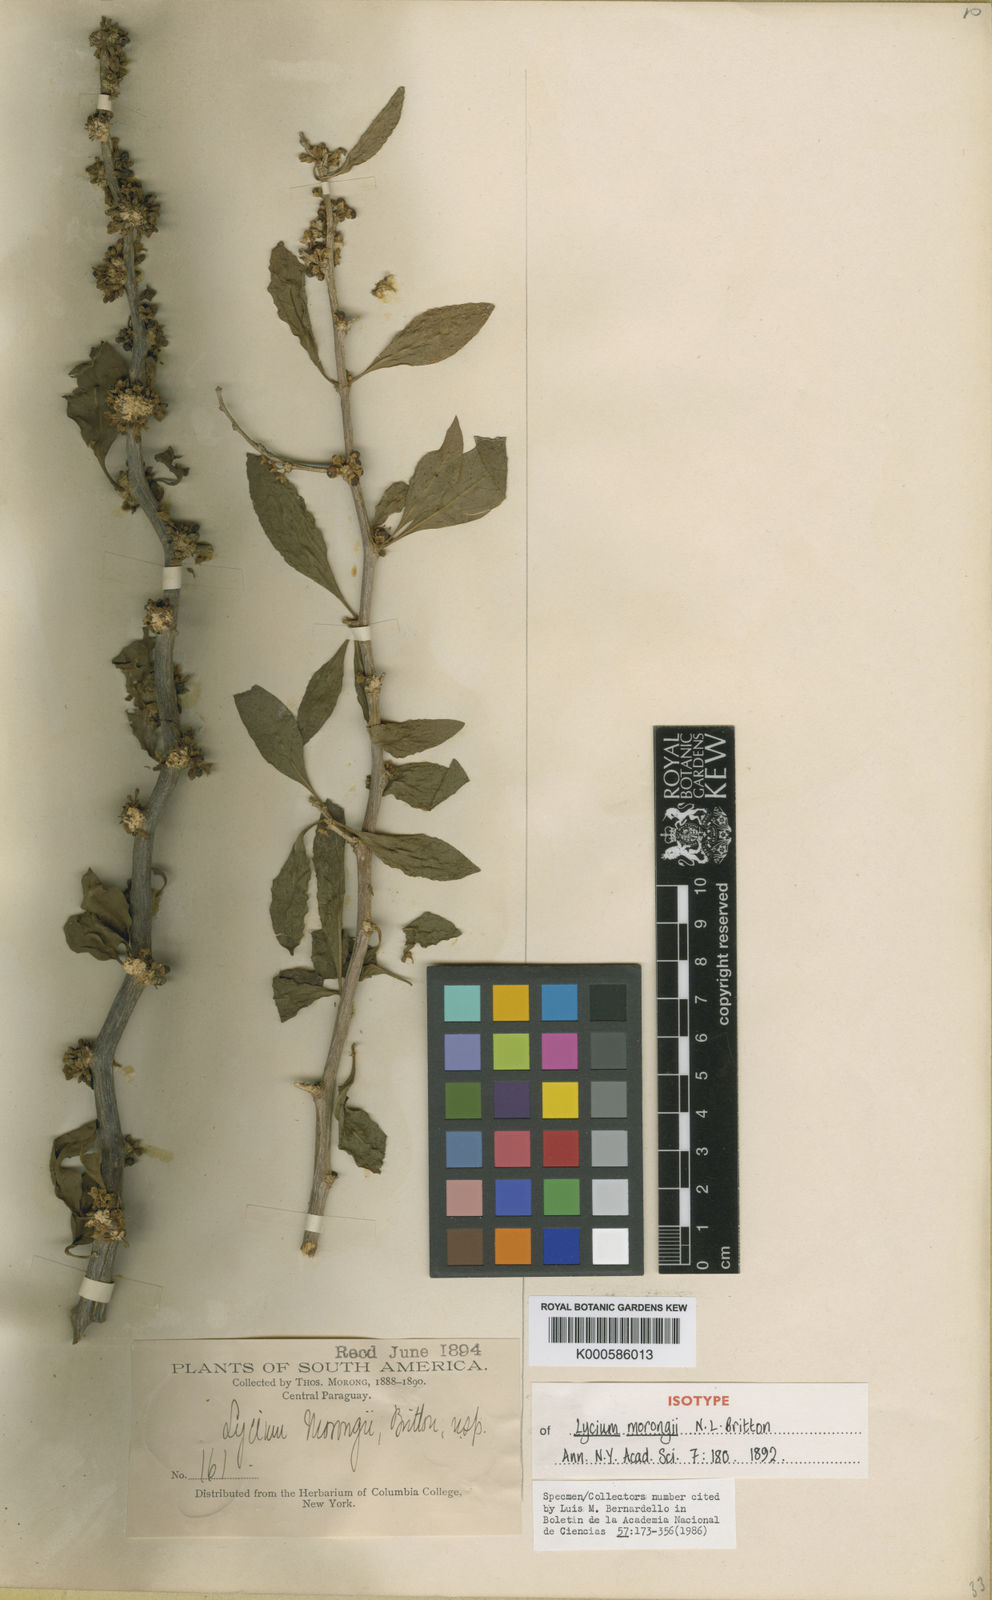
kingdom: Plantae
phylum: Tracheophyta
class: Magnoliopsida
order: Solanales
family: Solanaceae
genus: Lycium
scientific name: Lycium glomeratum
